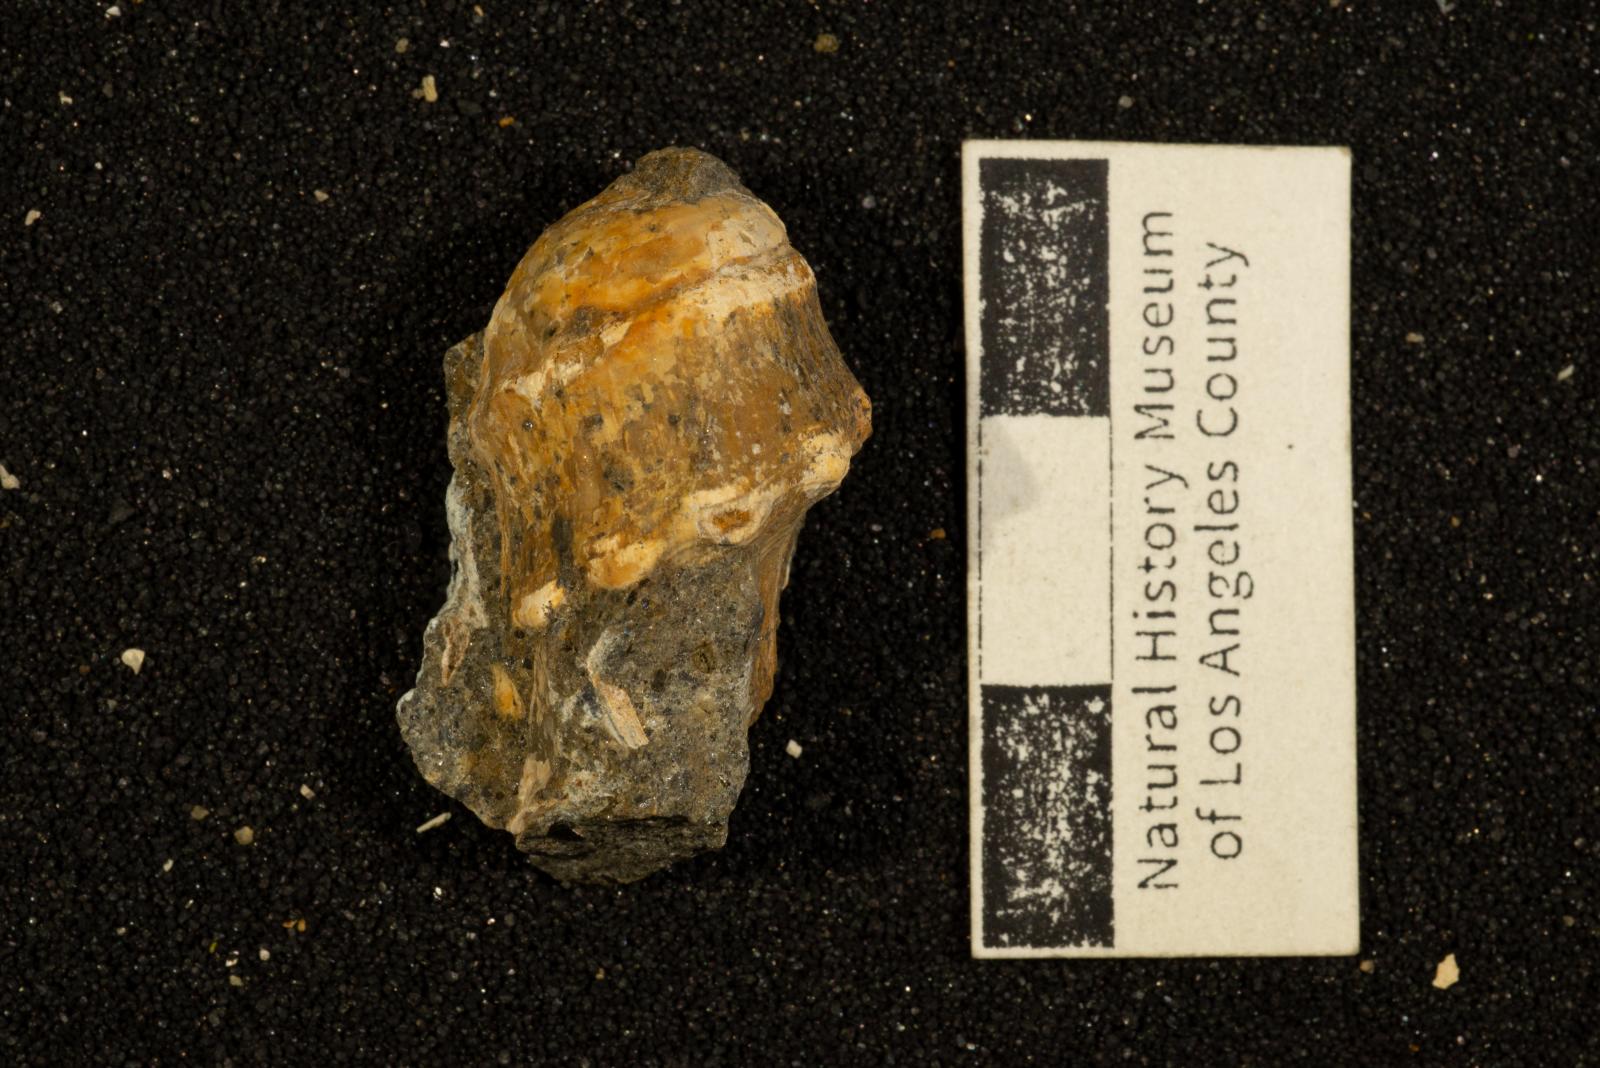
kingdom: Animalia
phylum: Mollusca
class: Gastropoda
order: Neogastropoda
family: Perissityidae
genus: Perissitys
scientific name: Perissitys colocara
